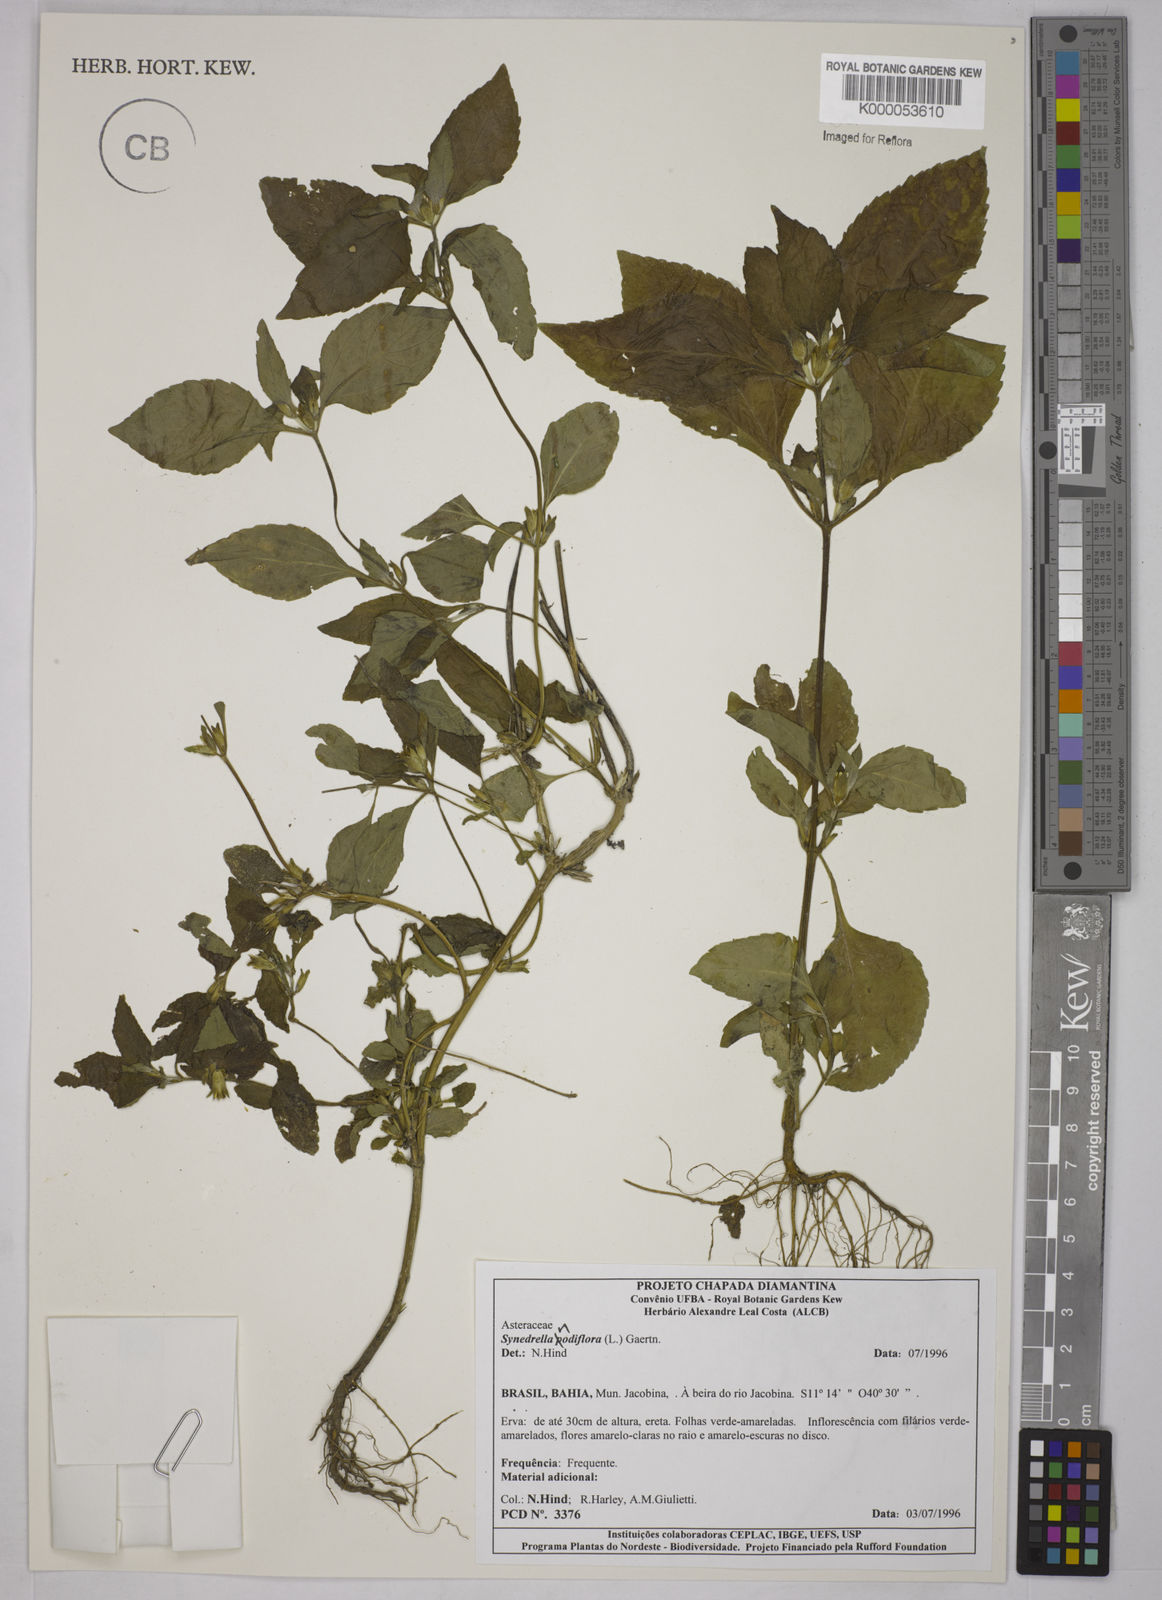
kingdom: Plantae
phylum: Tracheophyta
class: Magnoliopsida
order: Asterales
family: Asteraceae
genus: Synedrella
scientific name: Synedrella nodiflora
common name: Nodeweed
